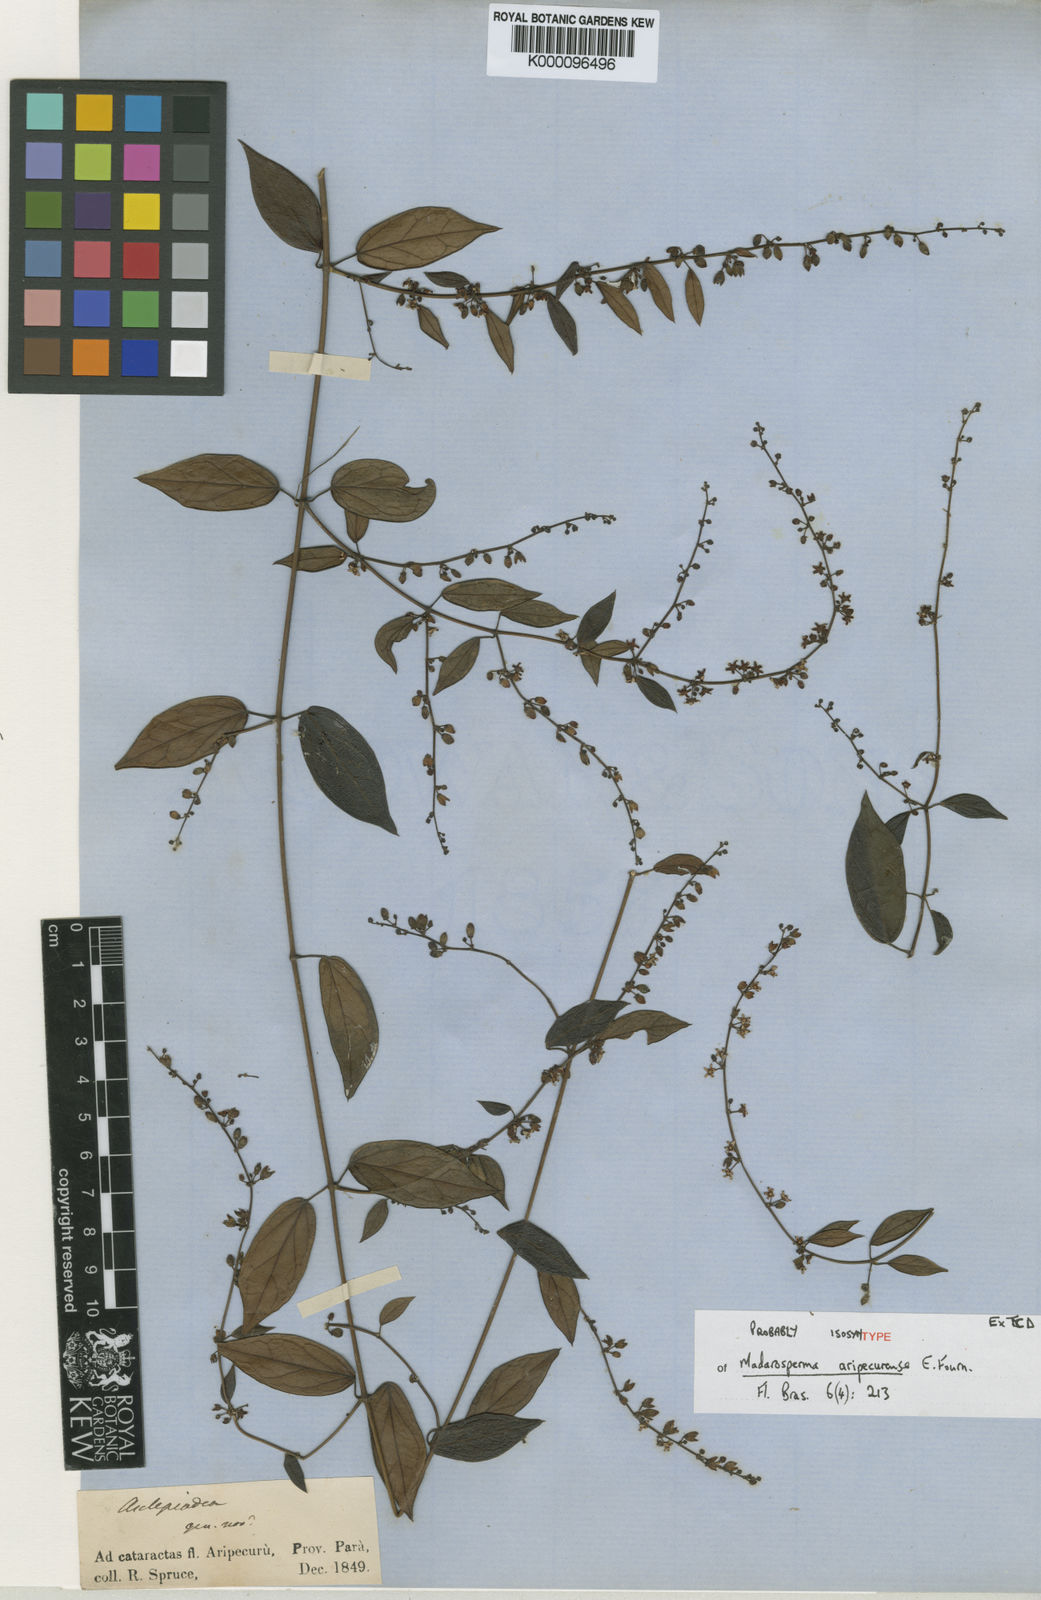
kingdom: Plantae
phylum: Tracheophyta
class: Magnoliopsida
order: Gentianales
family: Apocynaceae
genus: Tassadia
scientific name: Tassadia martiana
